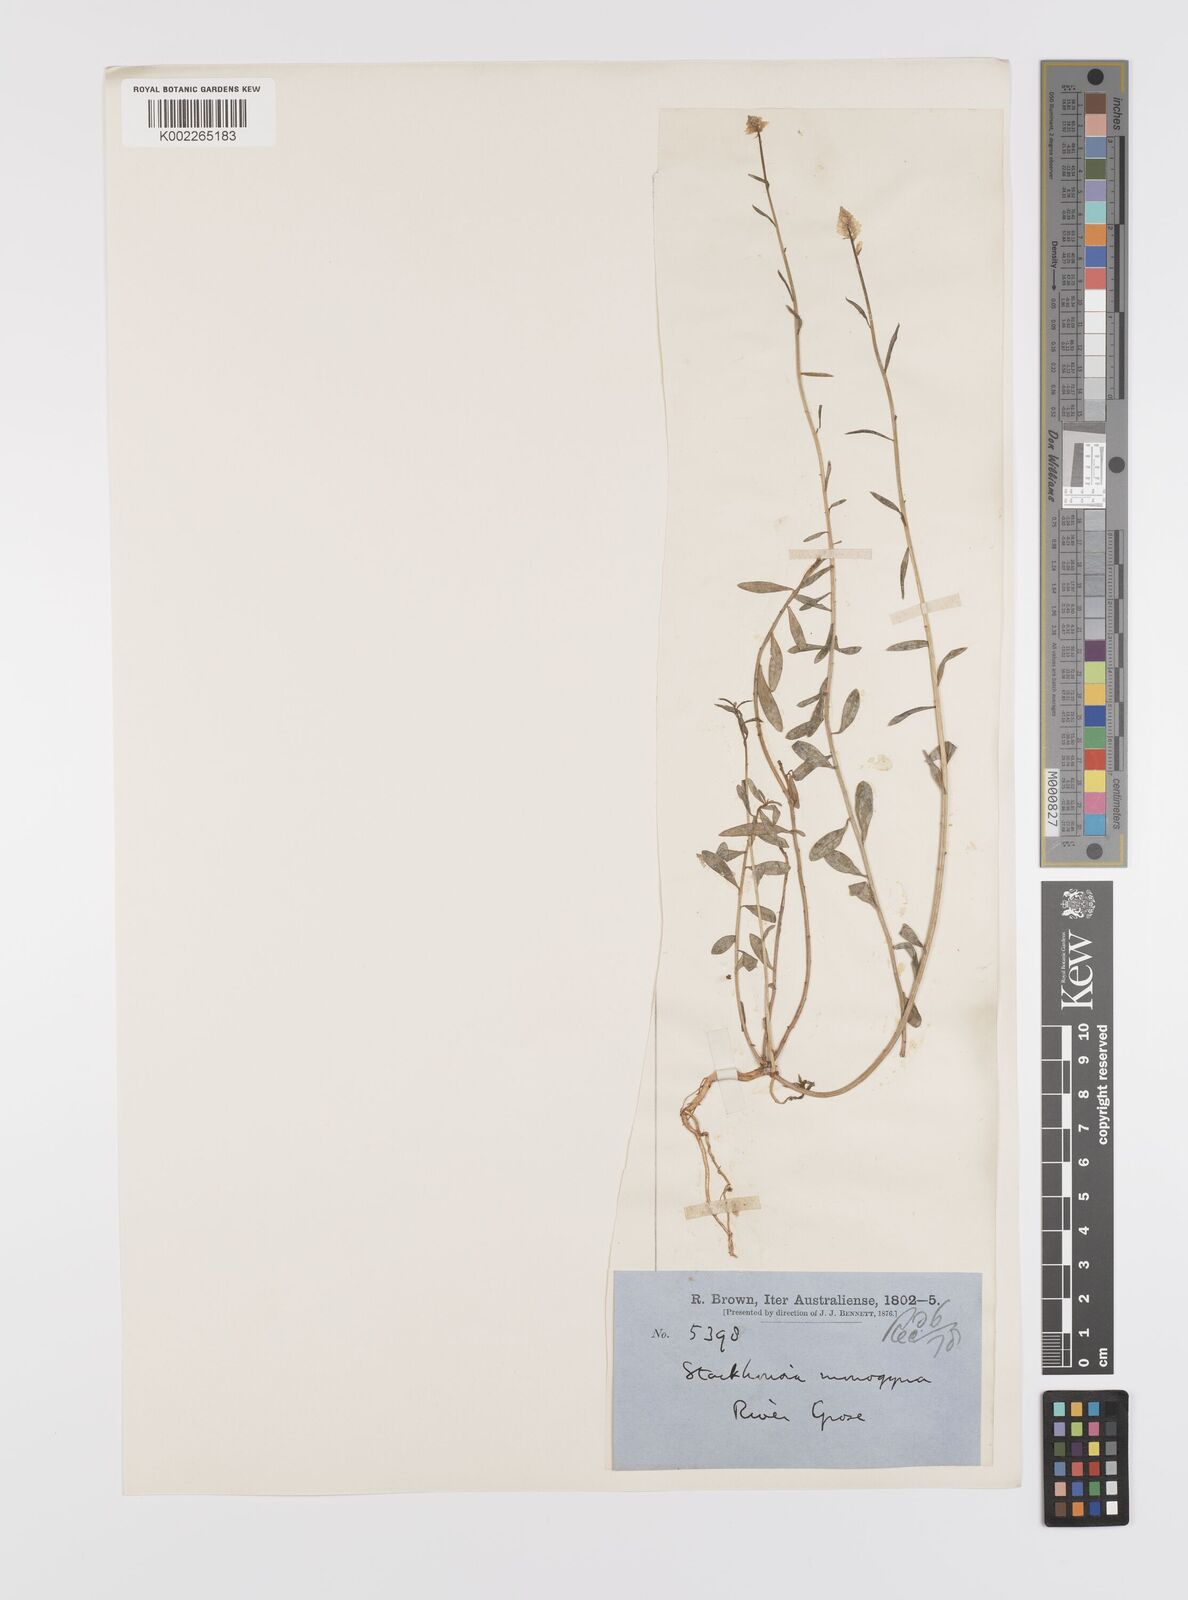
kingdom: Plantae
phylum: Tracheophyta
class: Magnoliopsida
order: Celastrales
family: Celastraceae
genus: Stackhousia
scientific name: Stackhousia monogyna
